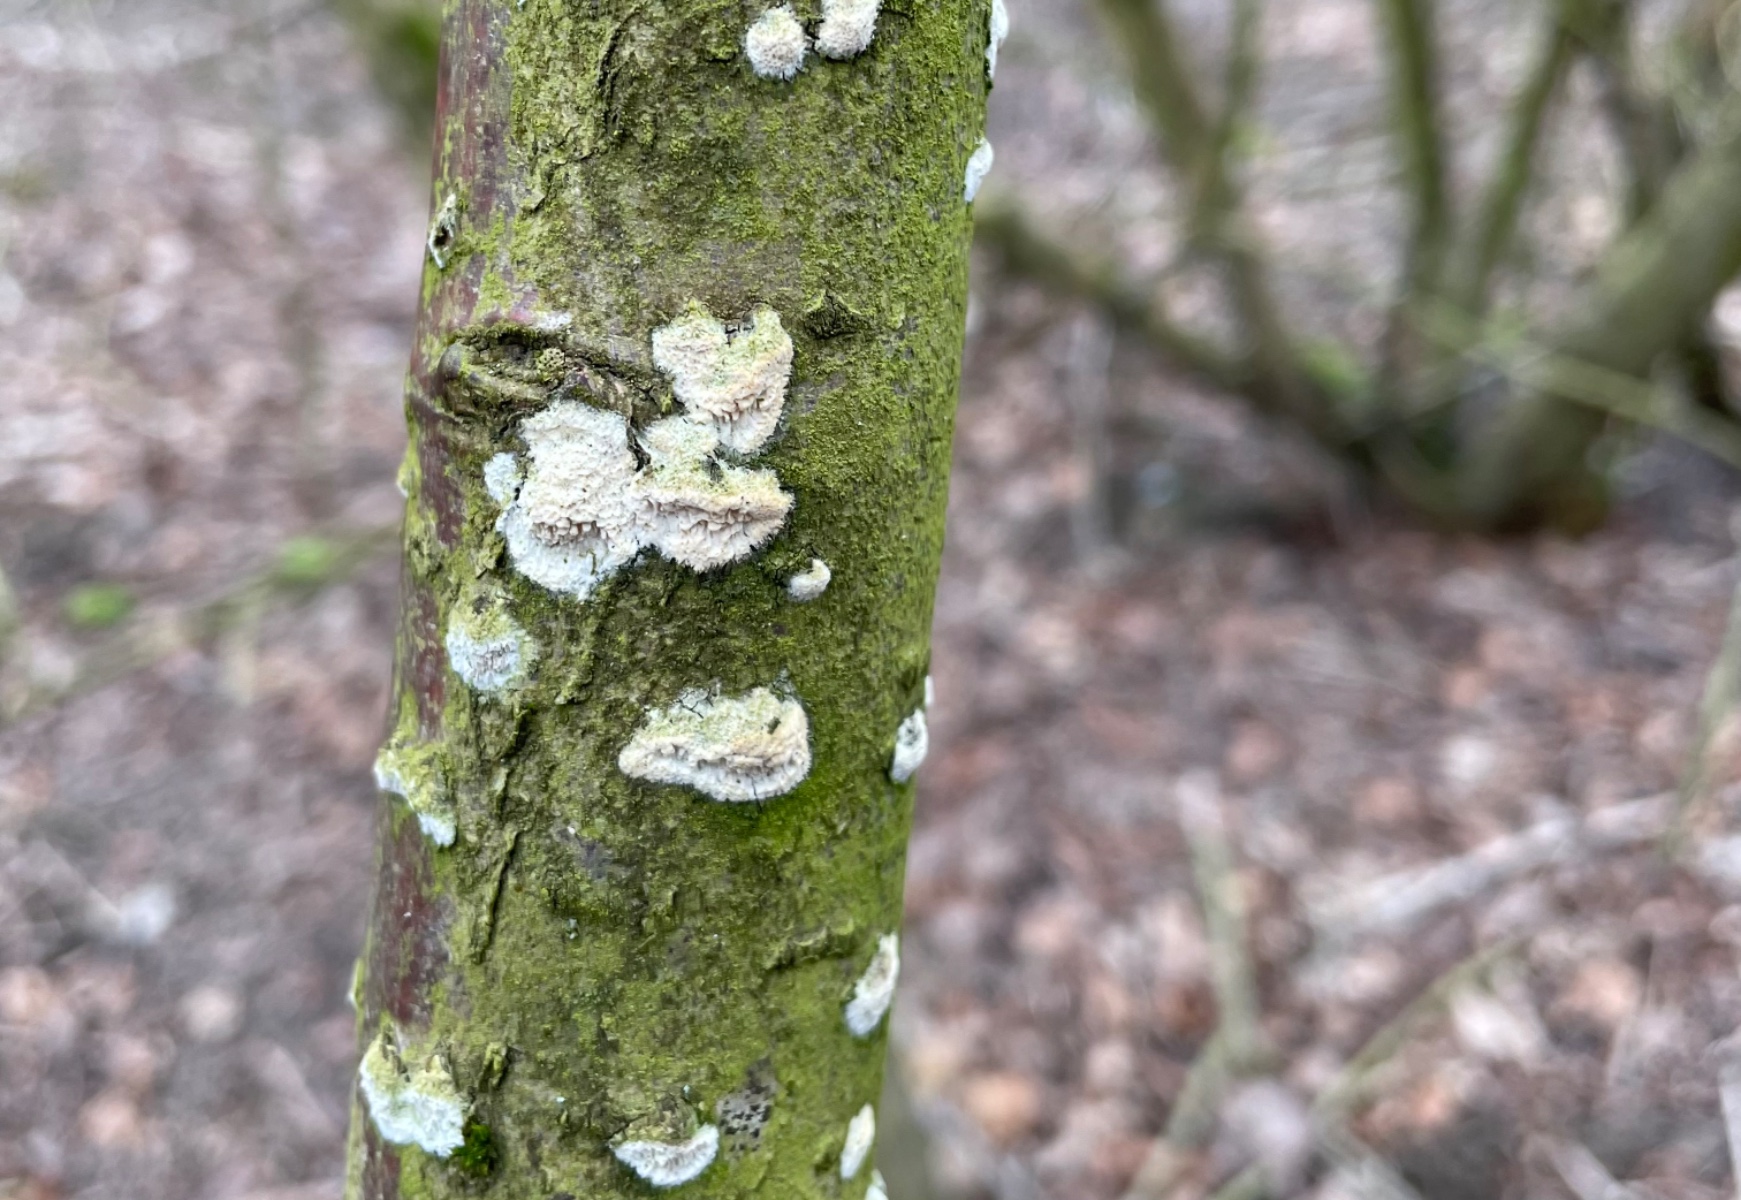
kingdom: Fungi
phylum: Basidiomycota
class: Agaricomycetes
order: Hymenochaetales
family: Schizoporaceae
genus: Xylodon
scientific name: Xylodon radula
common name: grovtandet kalkskind
